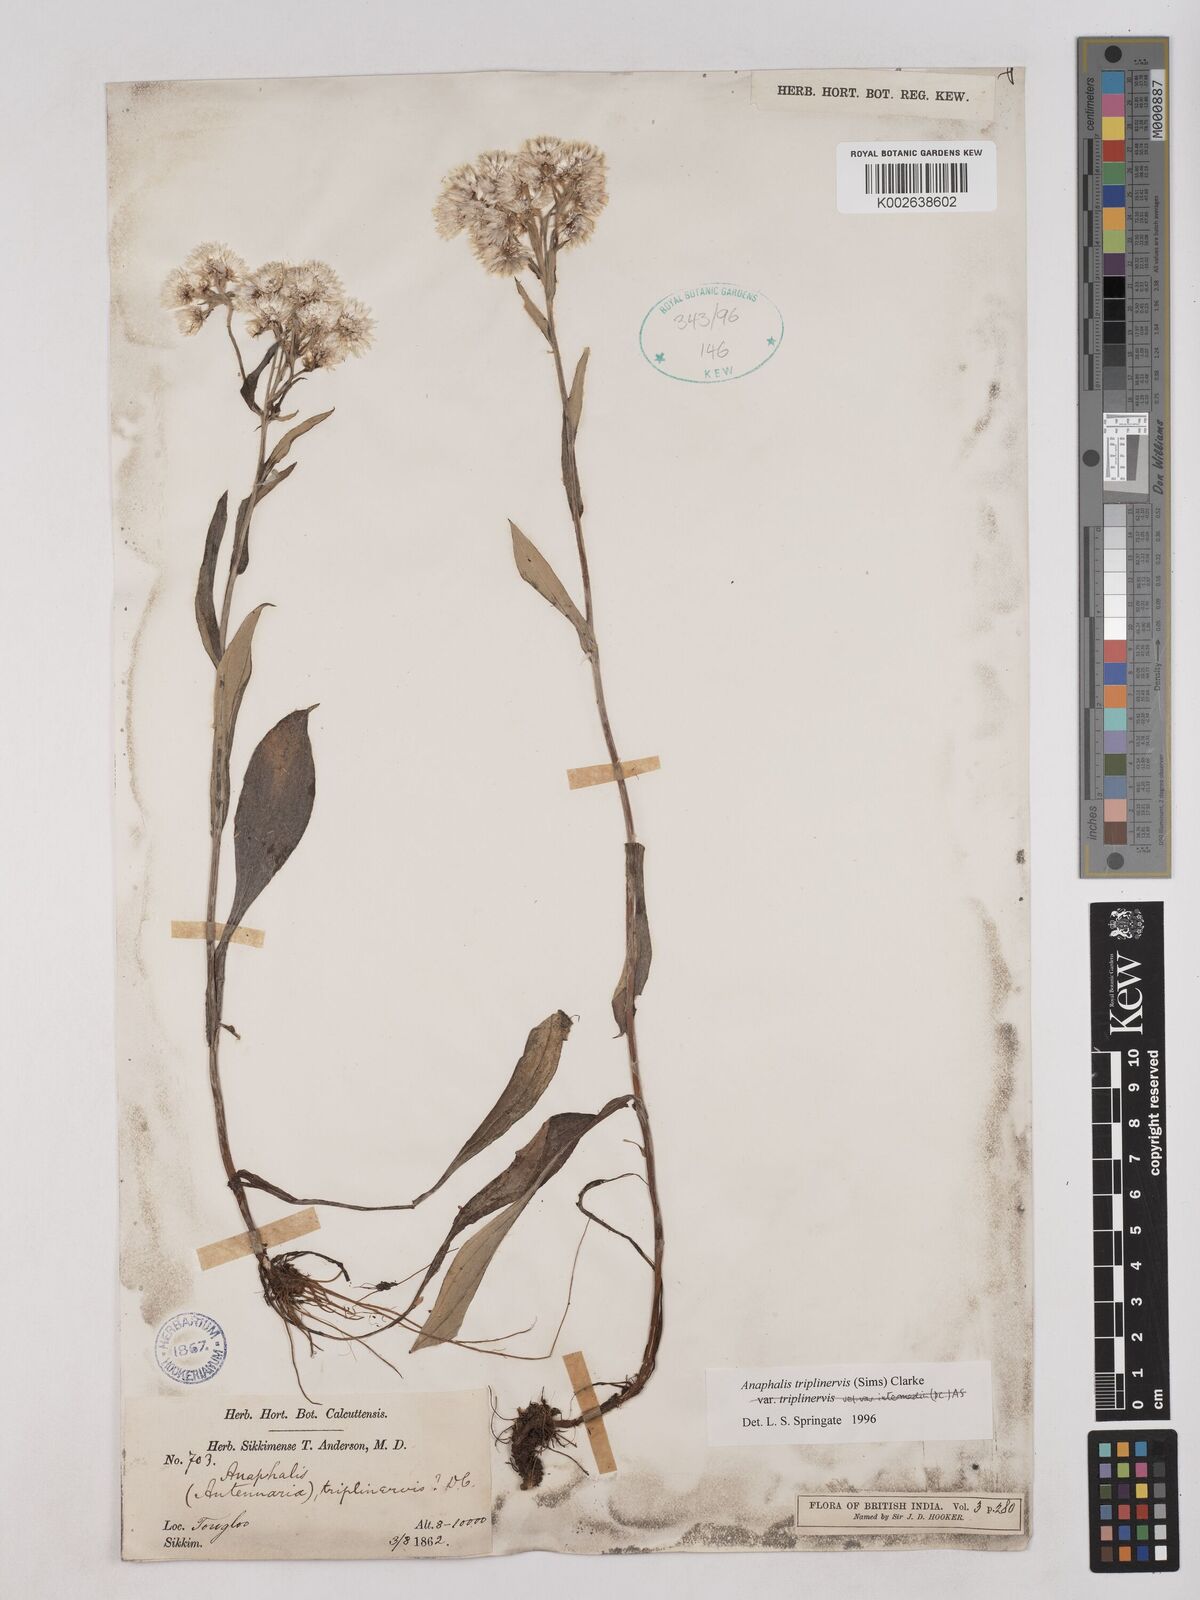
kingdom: Plantae
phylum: Tracheophyta
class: Magnoliopsida
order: Asterales
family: Asteraceae
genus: Anaphalis
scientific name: Anaphalis triplinervis
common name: Pearly everlasting
